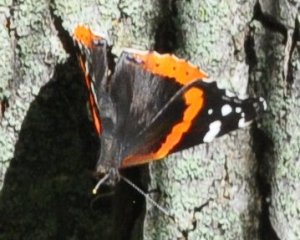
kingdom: Animalia
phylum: Arthropoda
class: Insecta
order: Lepidoptera
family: Nymphalidae
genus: Vanessa
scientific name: Vanessa atalanta
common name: Red Admiral
